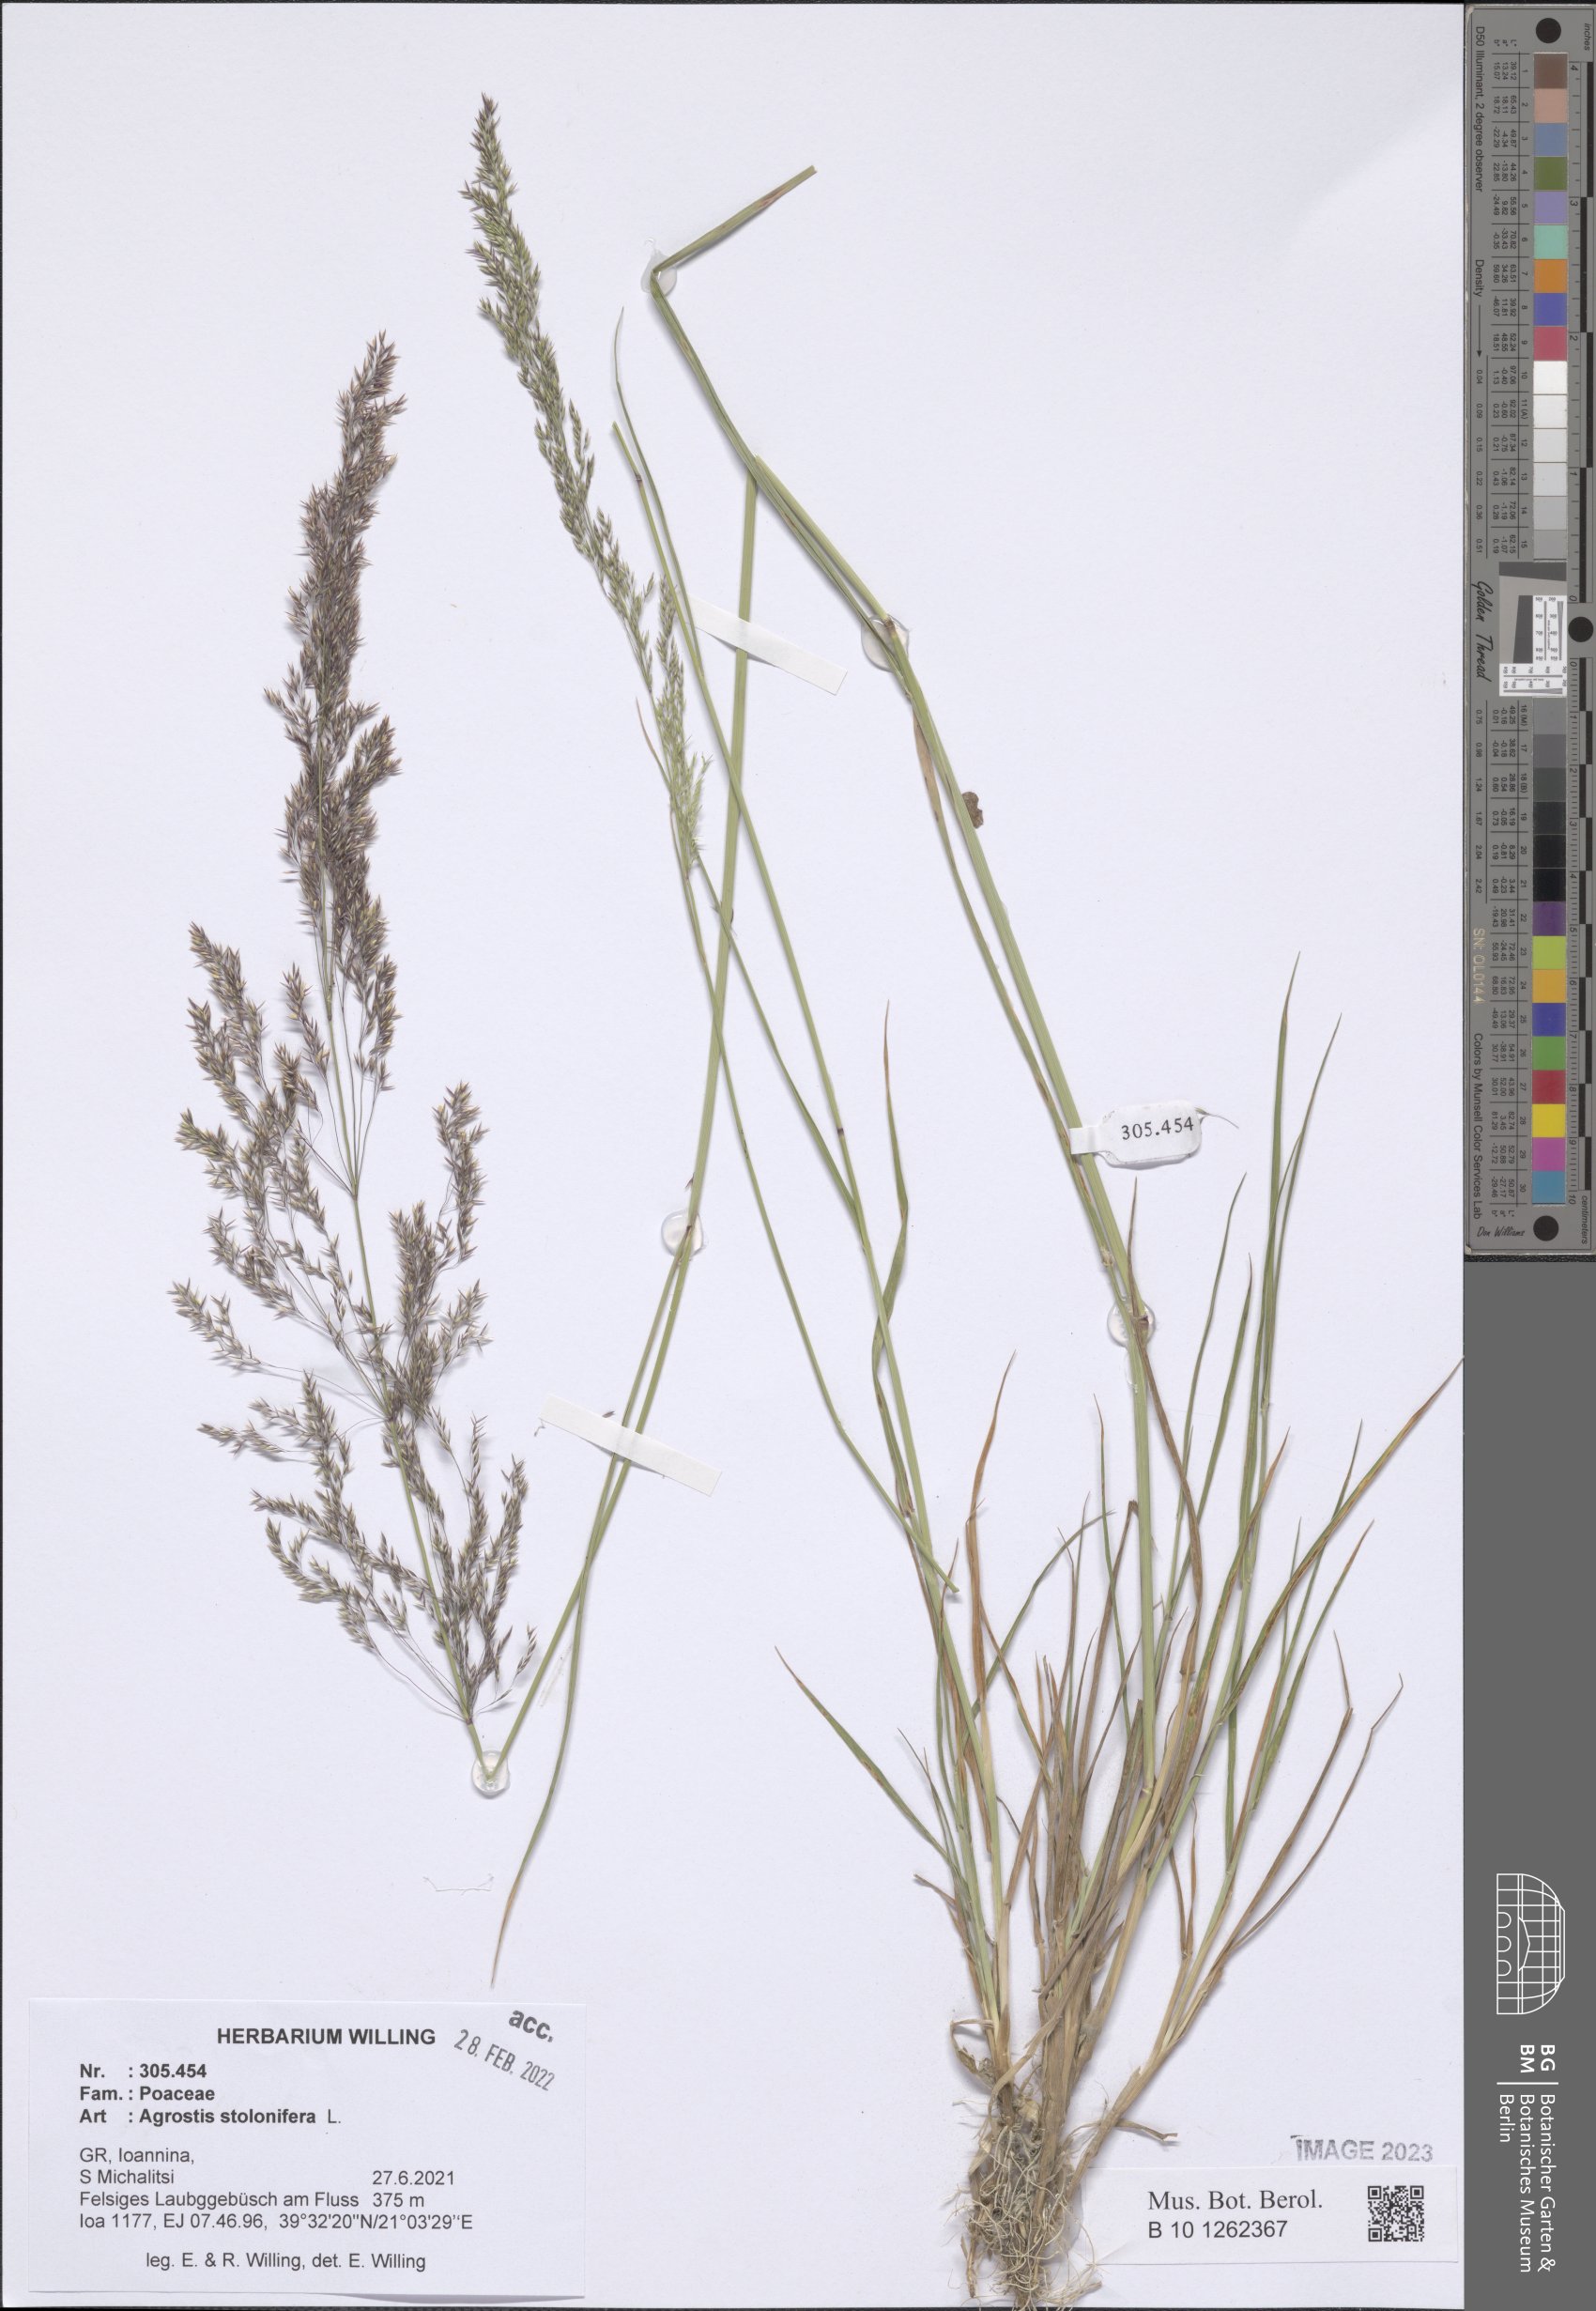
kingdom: Plantae
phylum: Tracheophyta
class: Liliopsida
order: Poales
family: Poaceae
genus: Agrostis
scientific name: Agrostis stolonifera
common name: Creeping bentgrass
